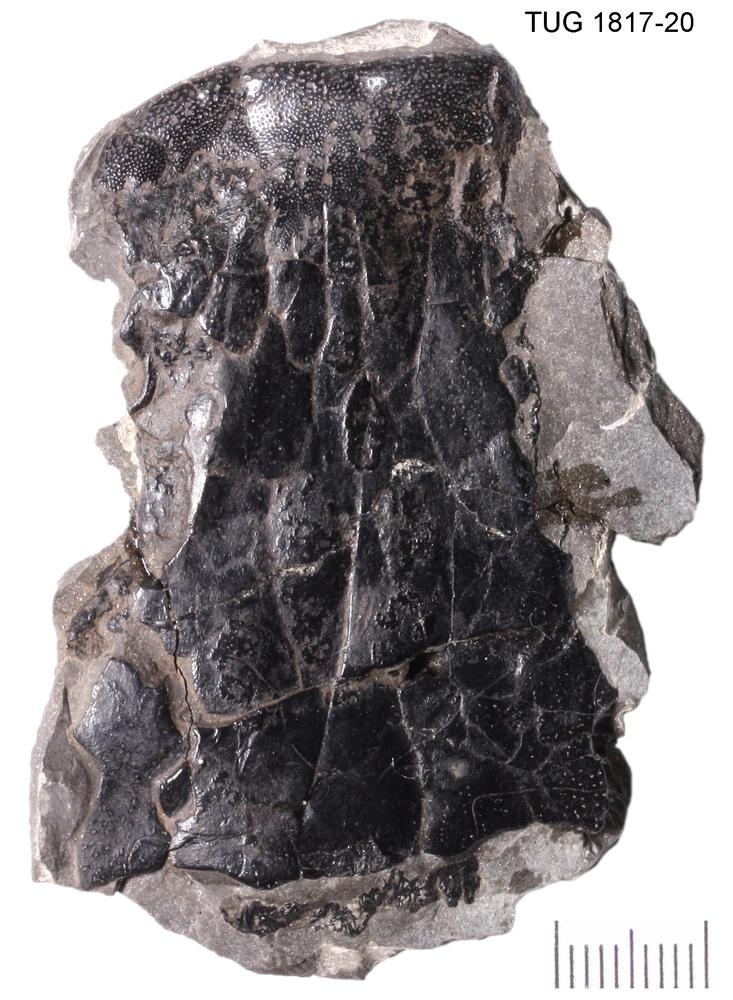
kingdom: Animalia
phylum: Chordata
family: Dipteridae
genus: Dipterus
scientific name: Dipterus valenciennesi
